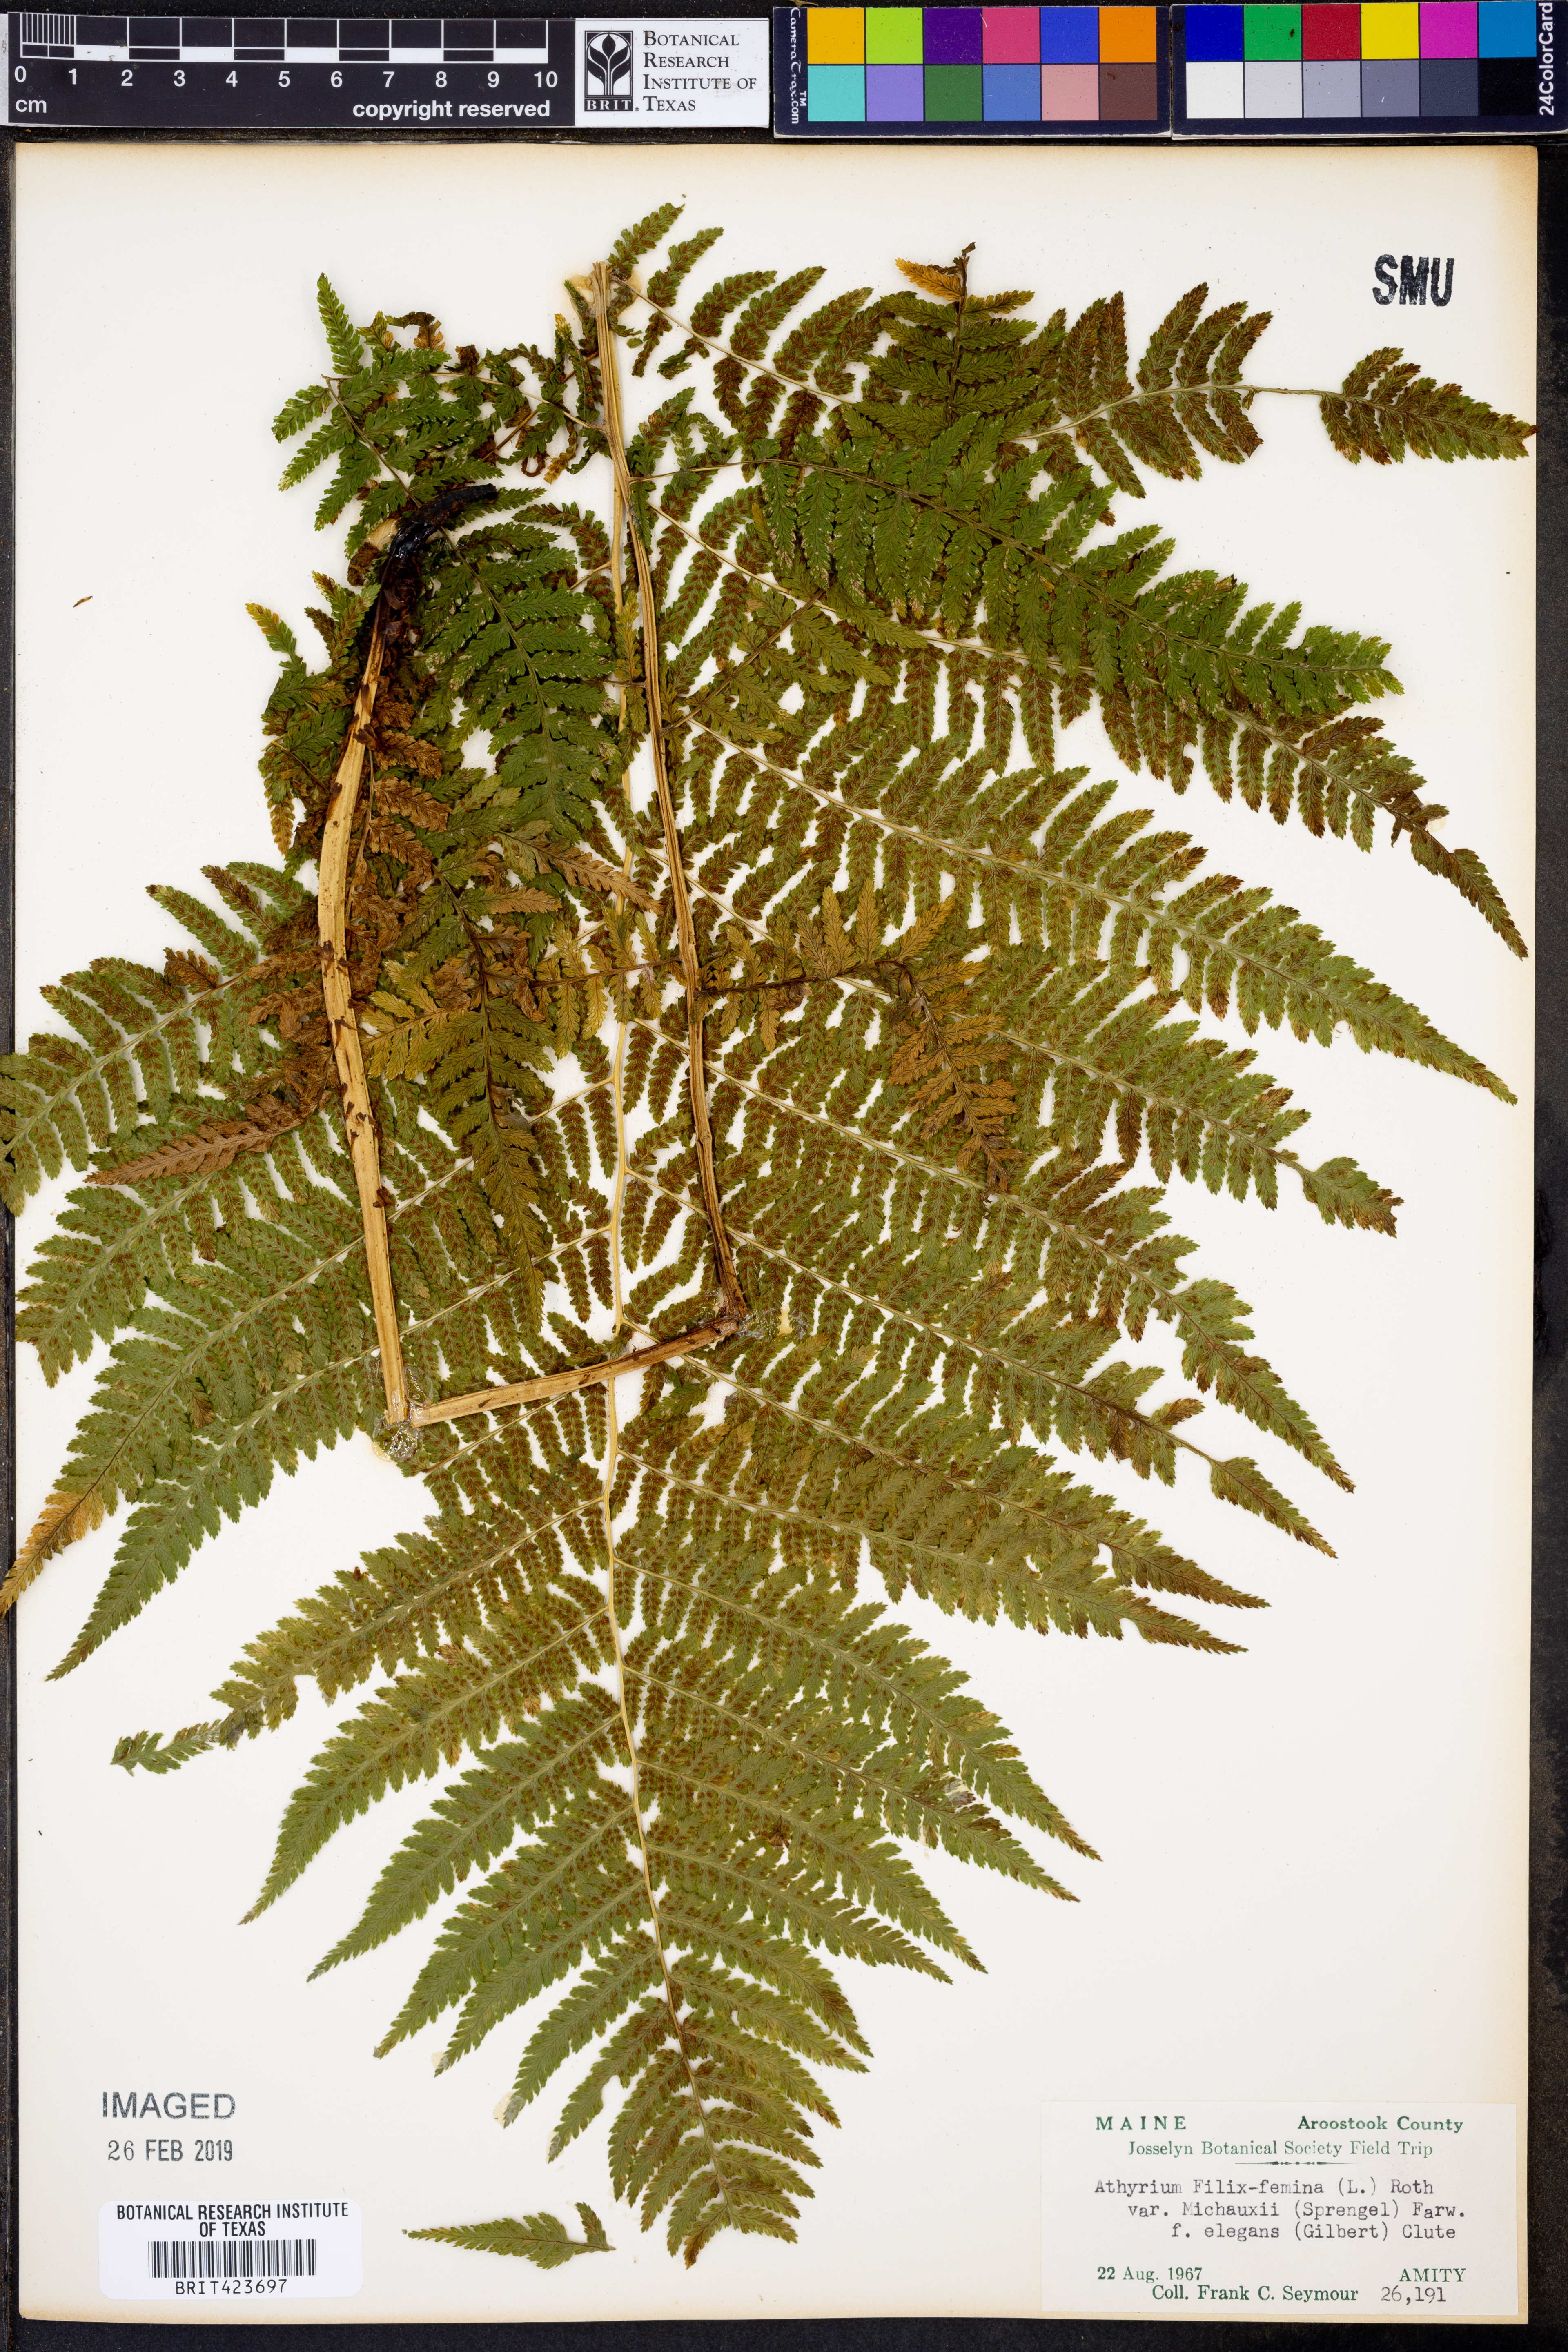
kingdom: Plantae
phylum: Tracheophyta
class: Polypodiopsida
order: Polypodiales
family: Athyriaceae
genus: Athyrium
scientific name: Athyrium angustum
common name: Northern lady fern
